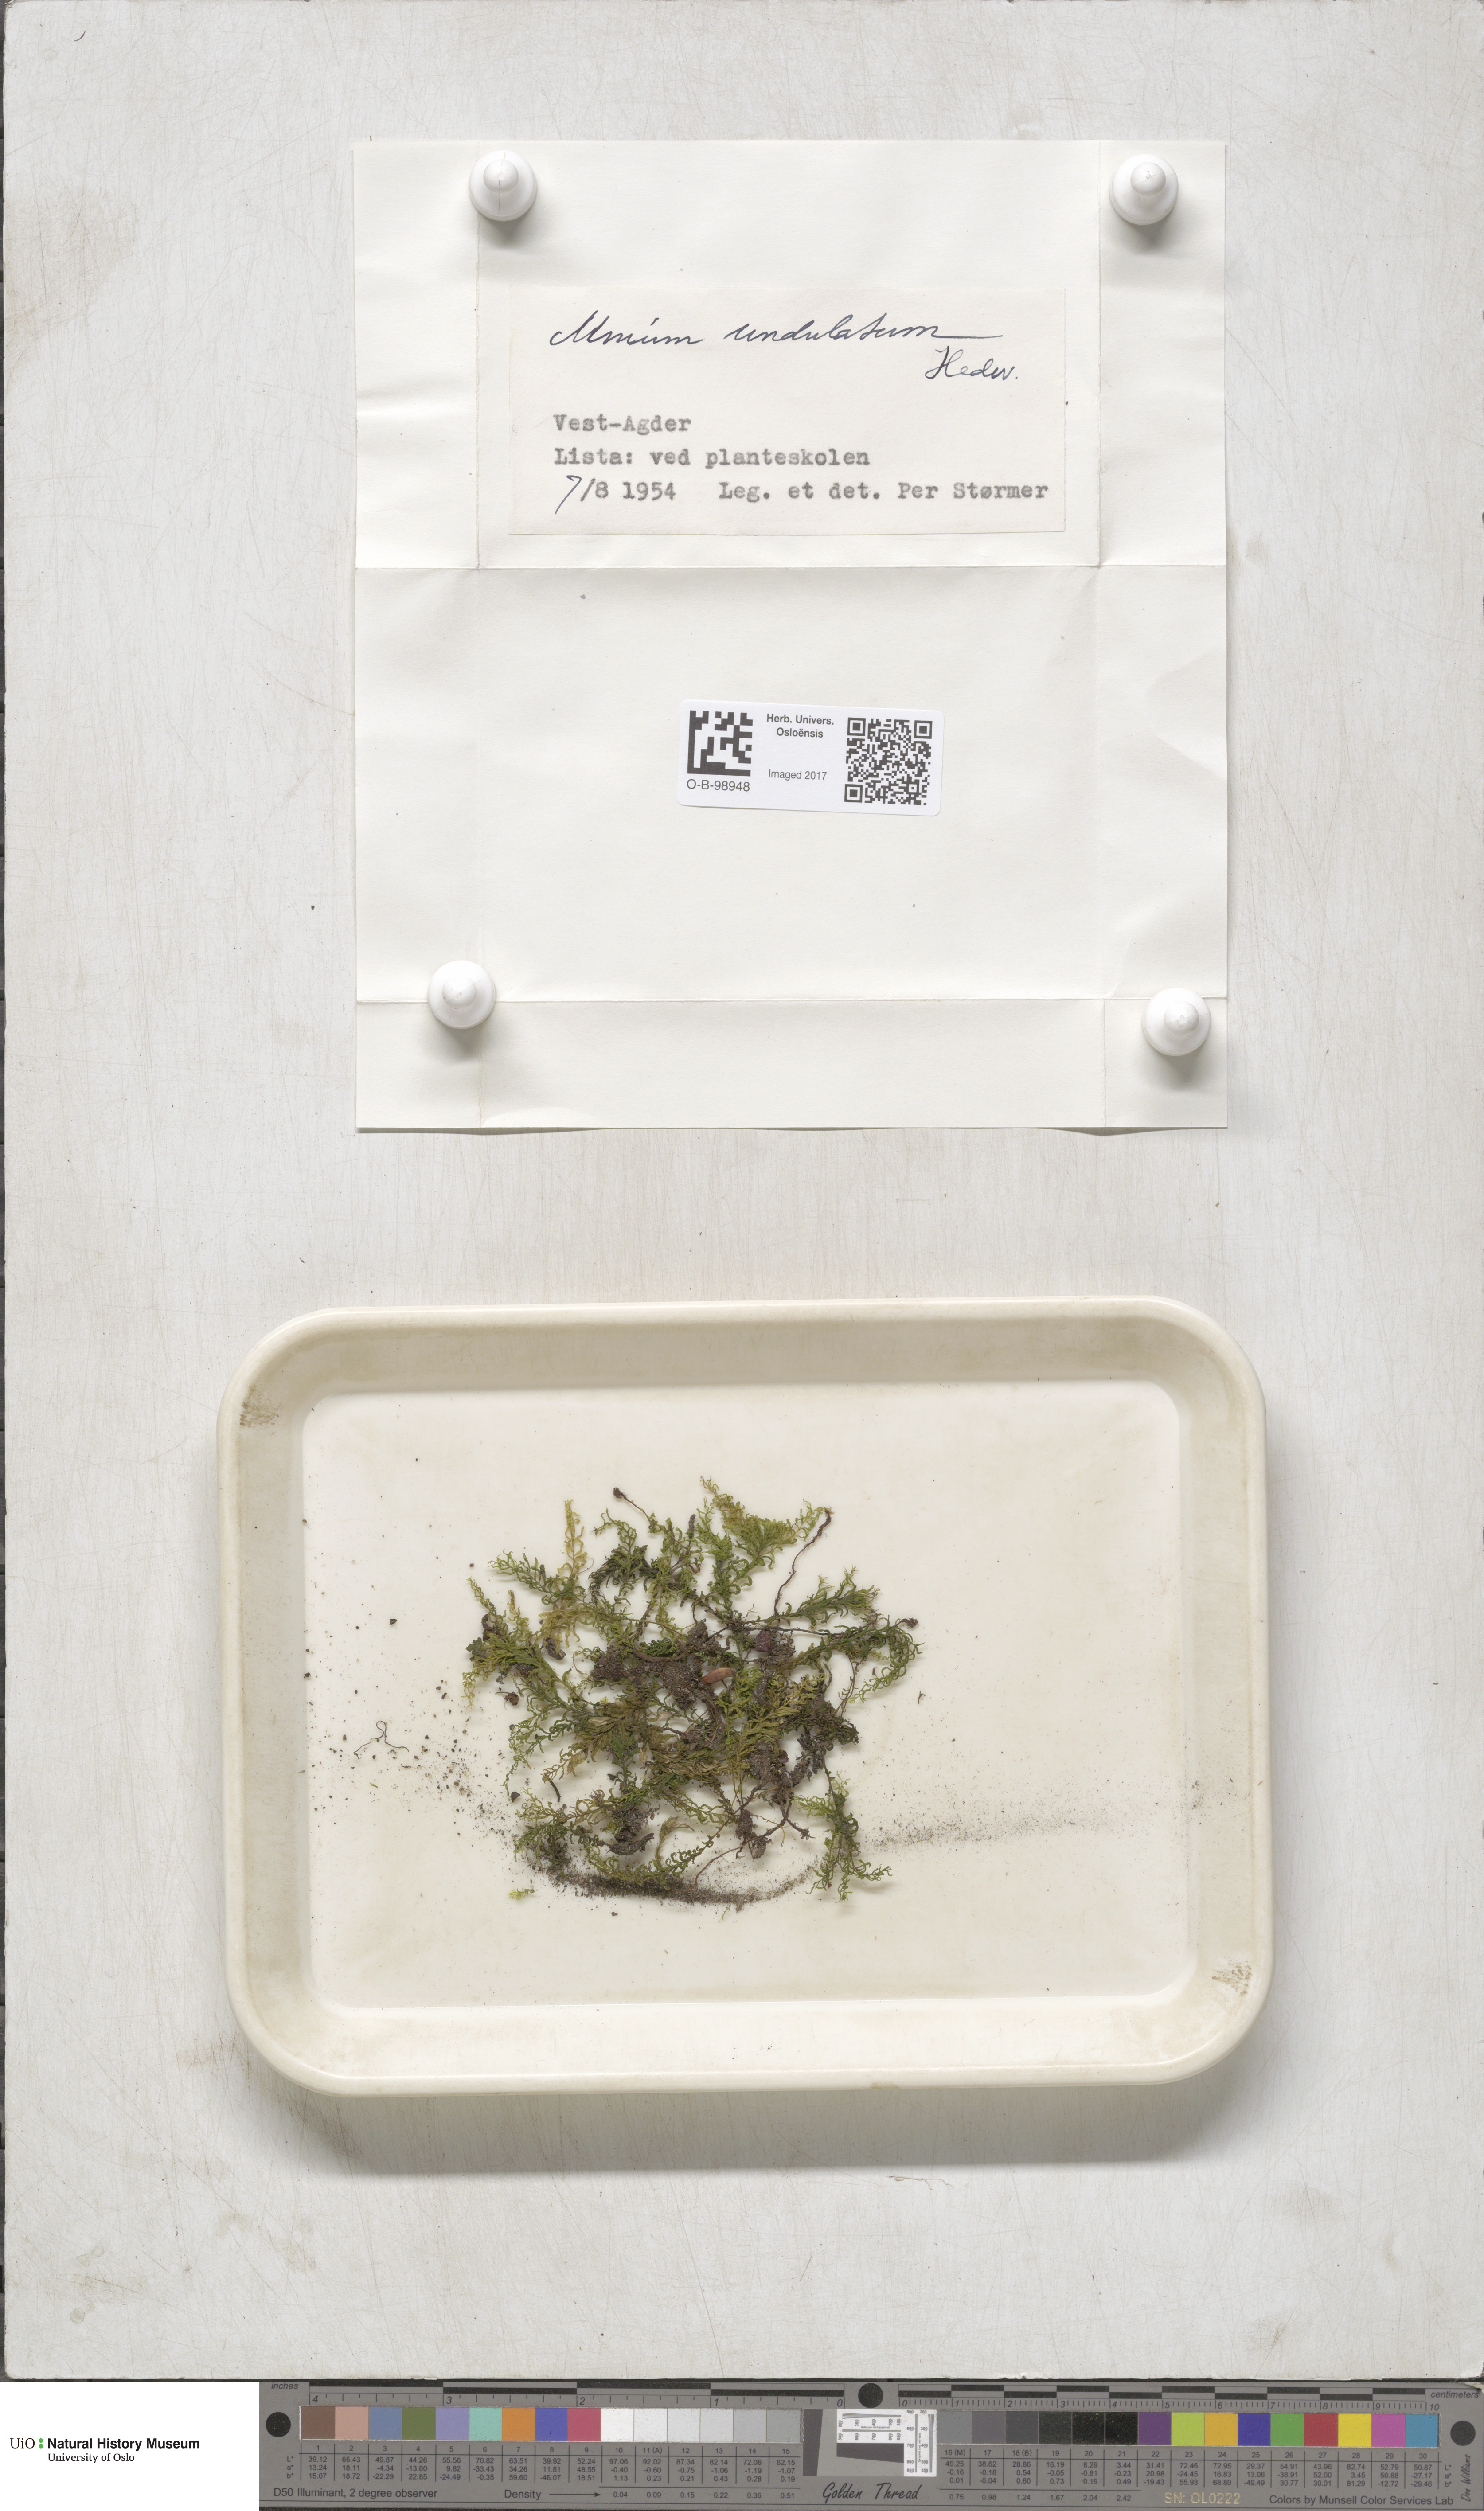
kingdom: Plantae
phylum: Bryophyta
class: Bryopsida
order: Bryales
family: Mniaceae
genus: Plagiomnium
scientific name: Plagiomnium undulatum
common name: Hart's-tongue thyme-moss
